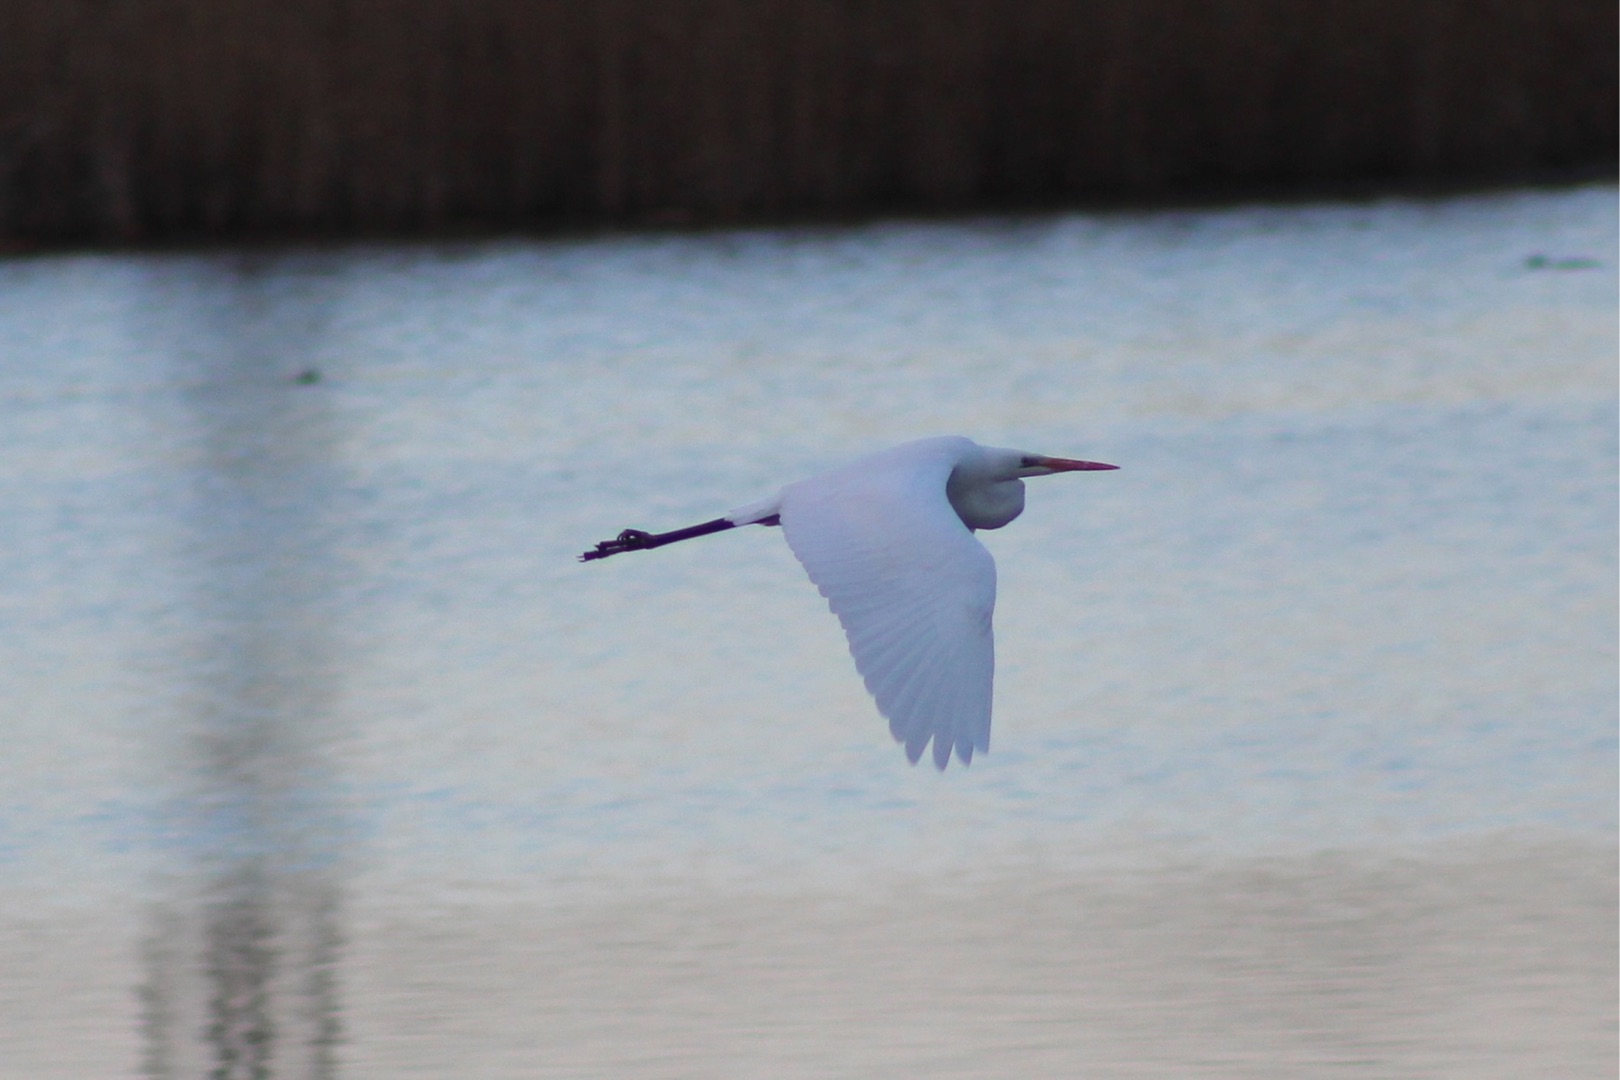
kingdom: Animalia
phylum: Chordata
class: Aves
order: Pelecaniformes
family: Ardeidae
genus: Ardea
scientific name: Ardea alba
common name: Sølvhejre
